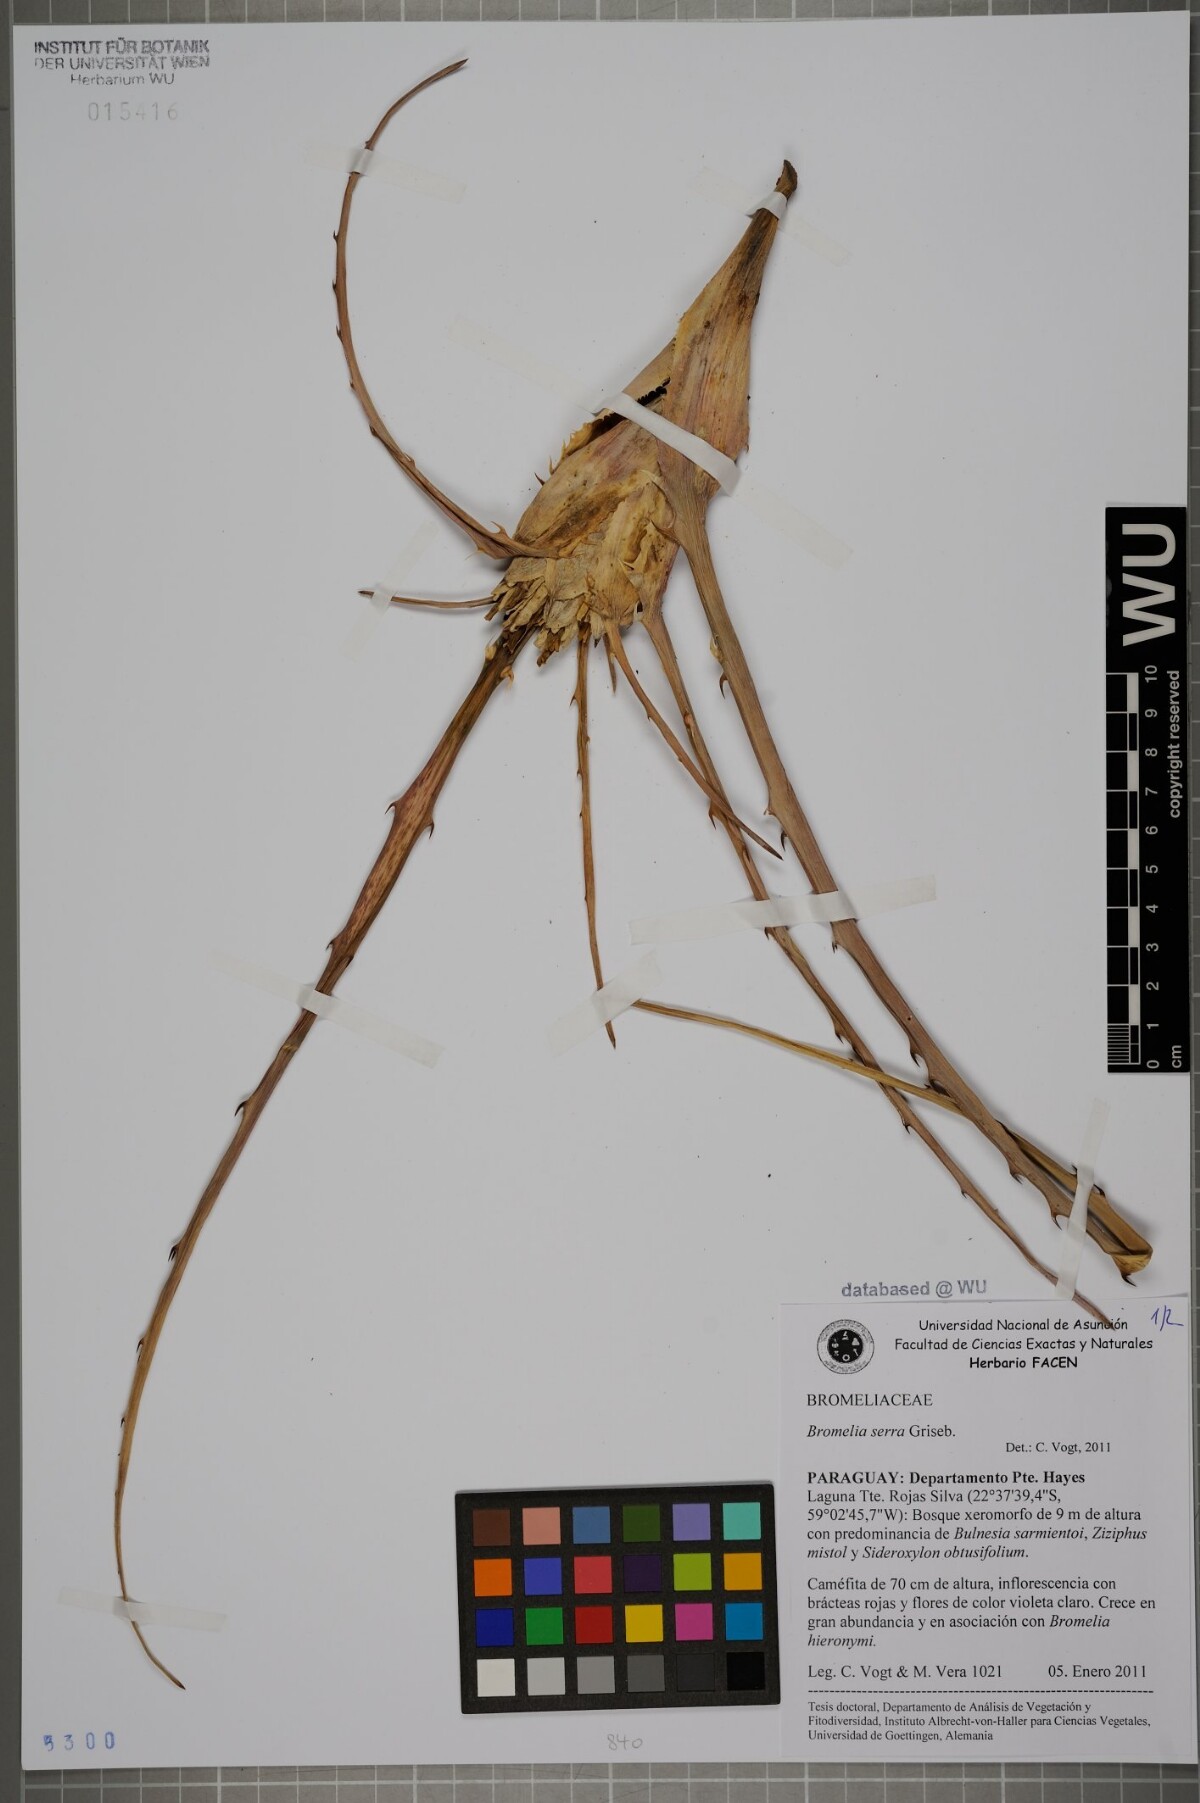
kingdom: Plantae
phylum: Tracheophyta
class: Liliopsida
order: Poales
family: Bromeliaceae
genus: Bromelia
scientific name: Bromelia serra
